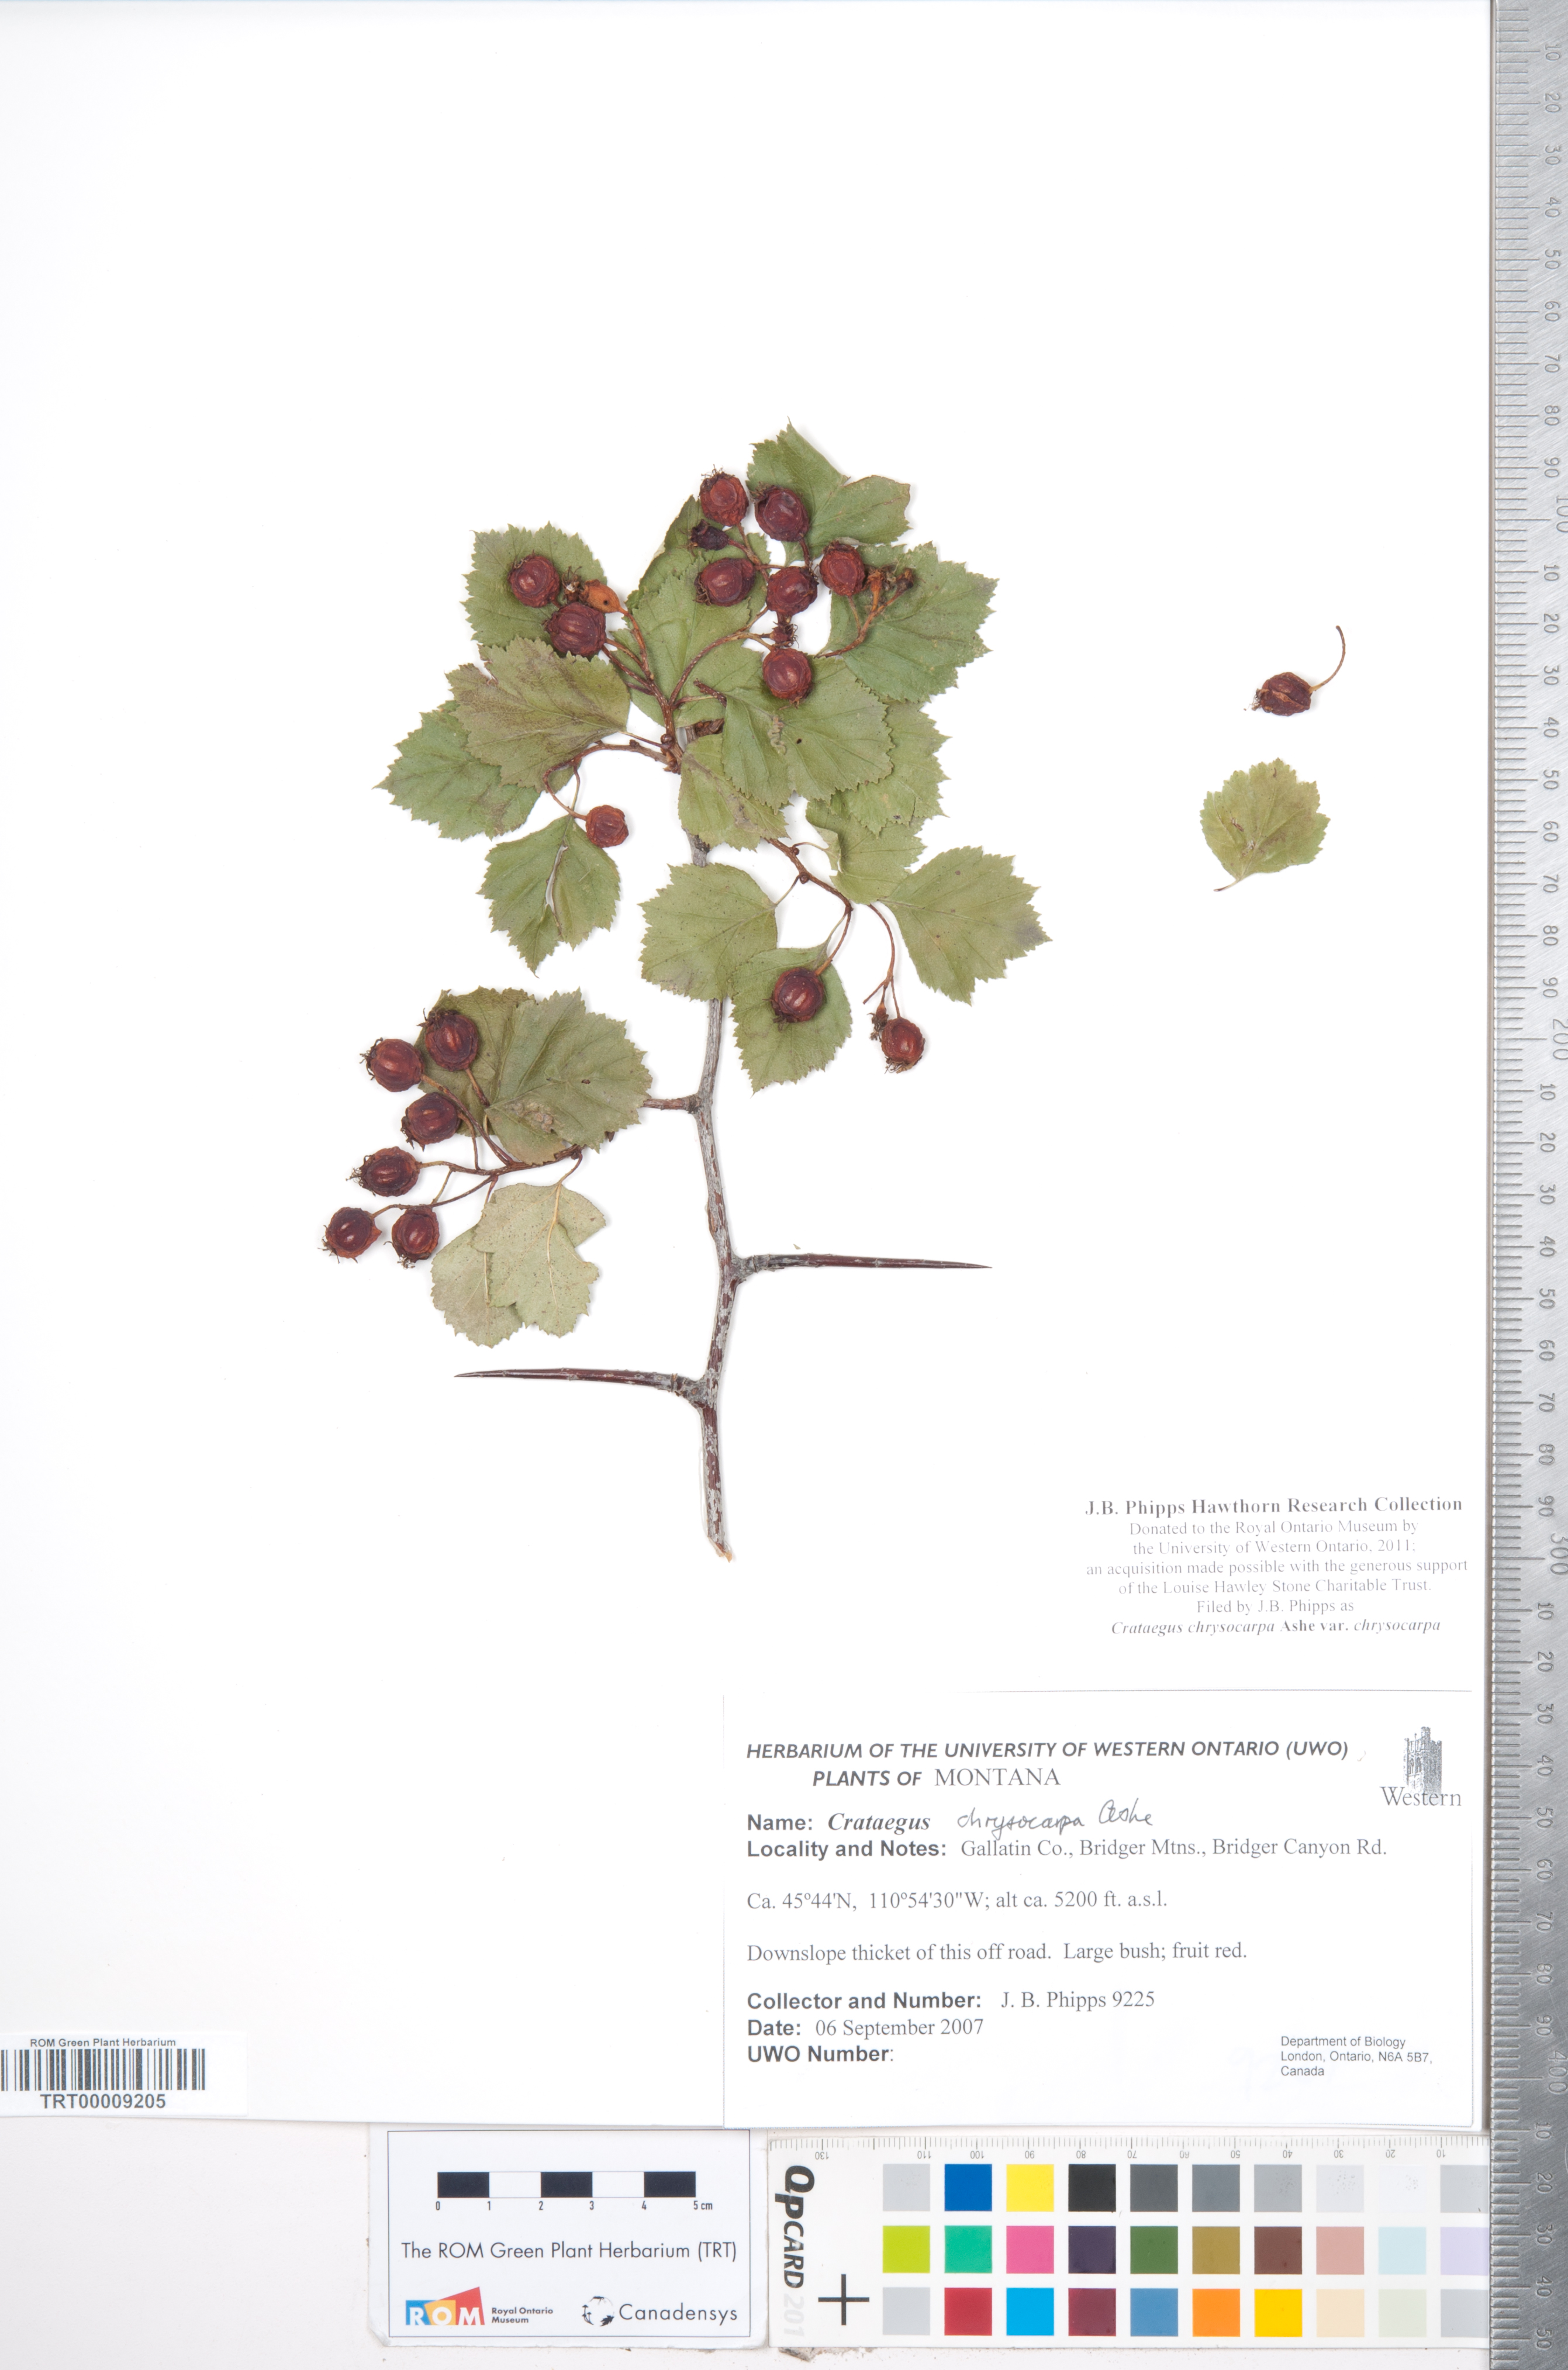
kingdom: Plantae
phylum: Tracheophyta
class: Magnoliopsida
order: Rosales
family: Rosaceae
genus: Crataegus
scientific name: Crataegus chrysocarpa
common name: Fire-berry hawthorn
